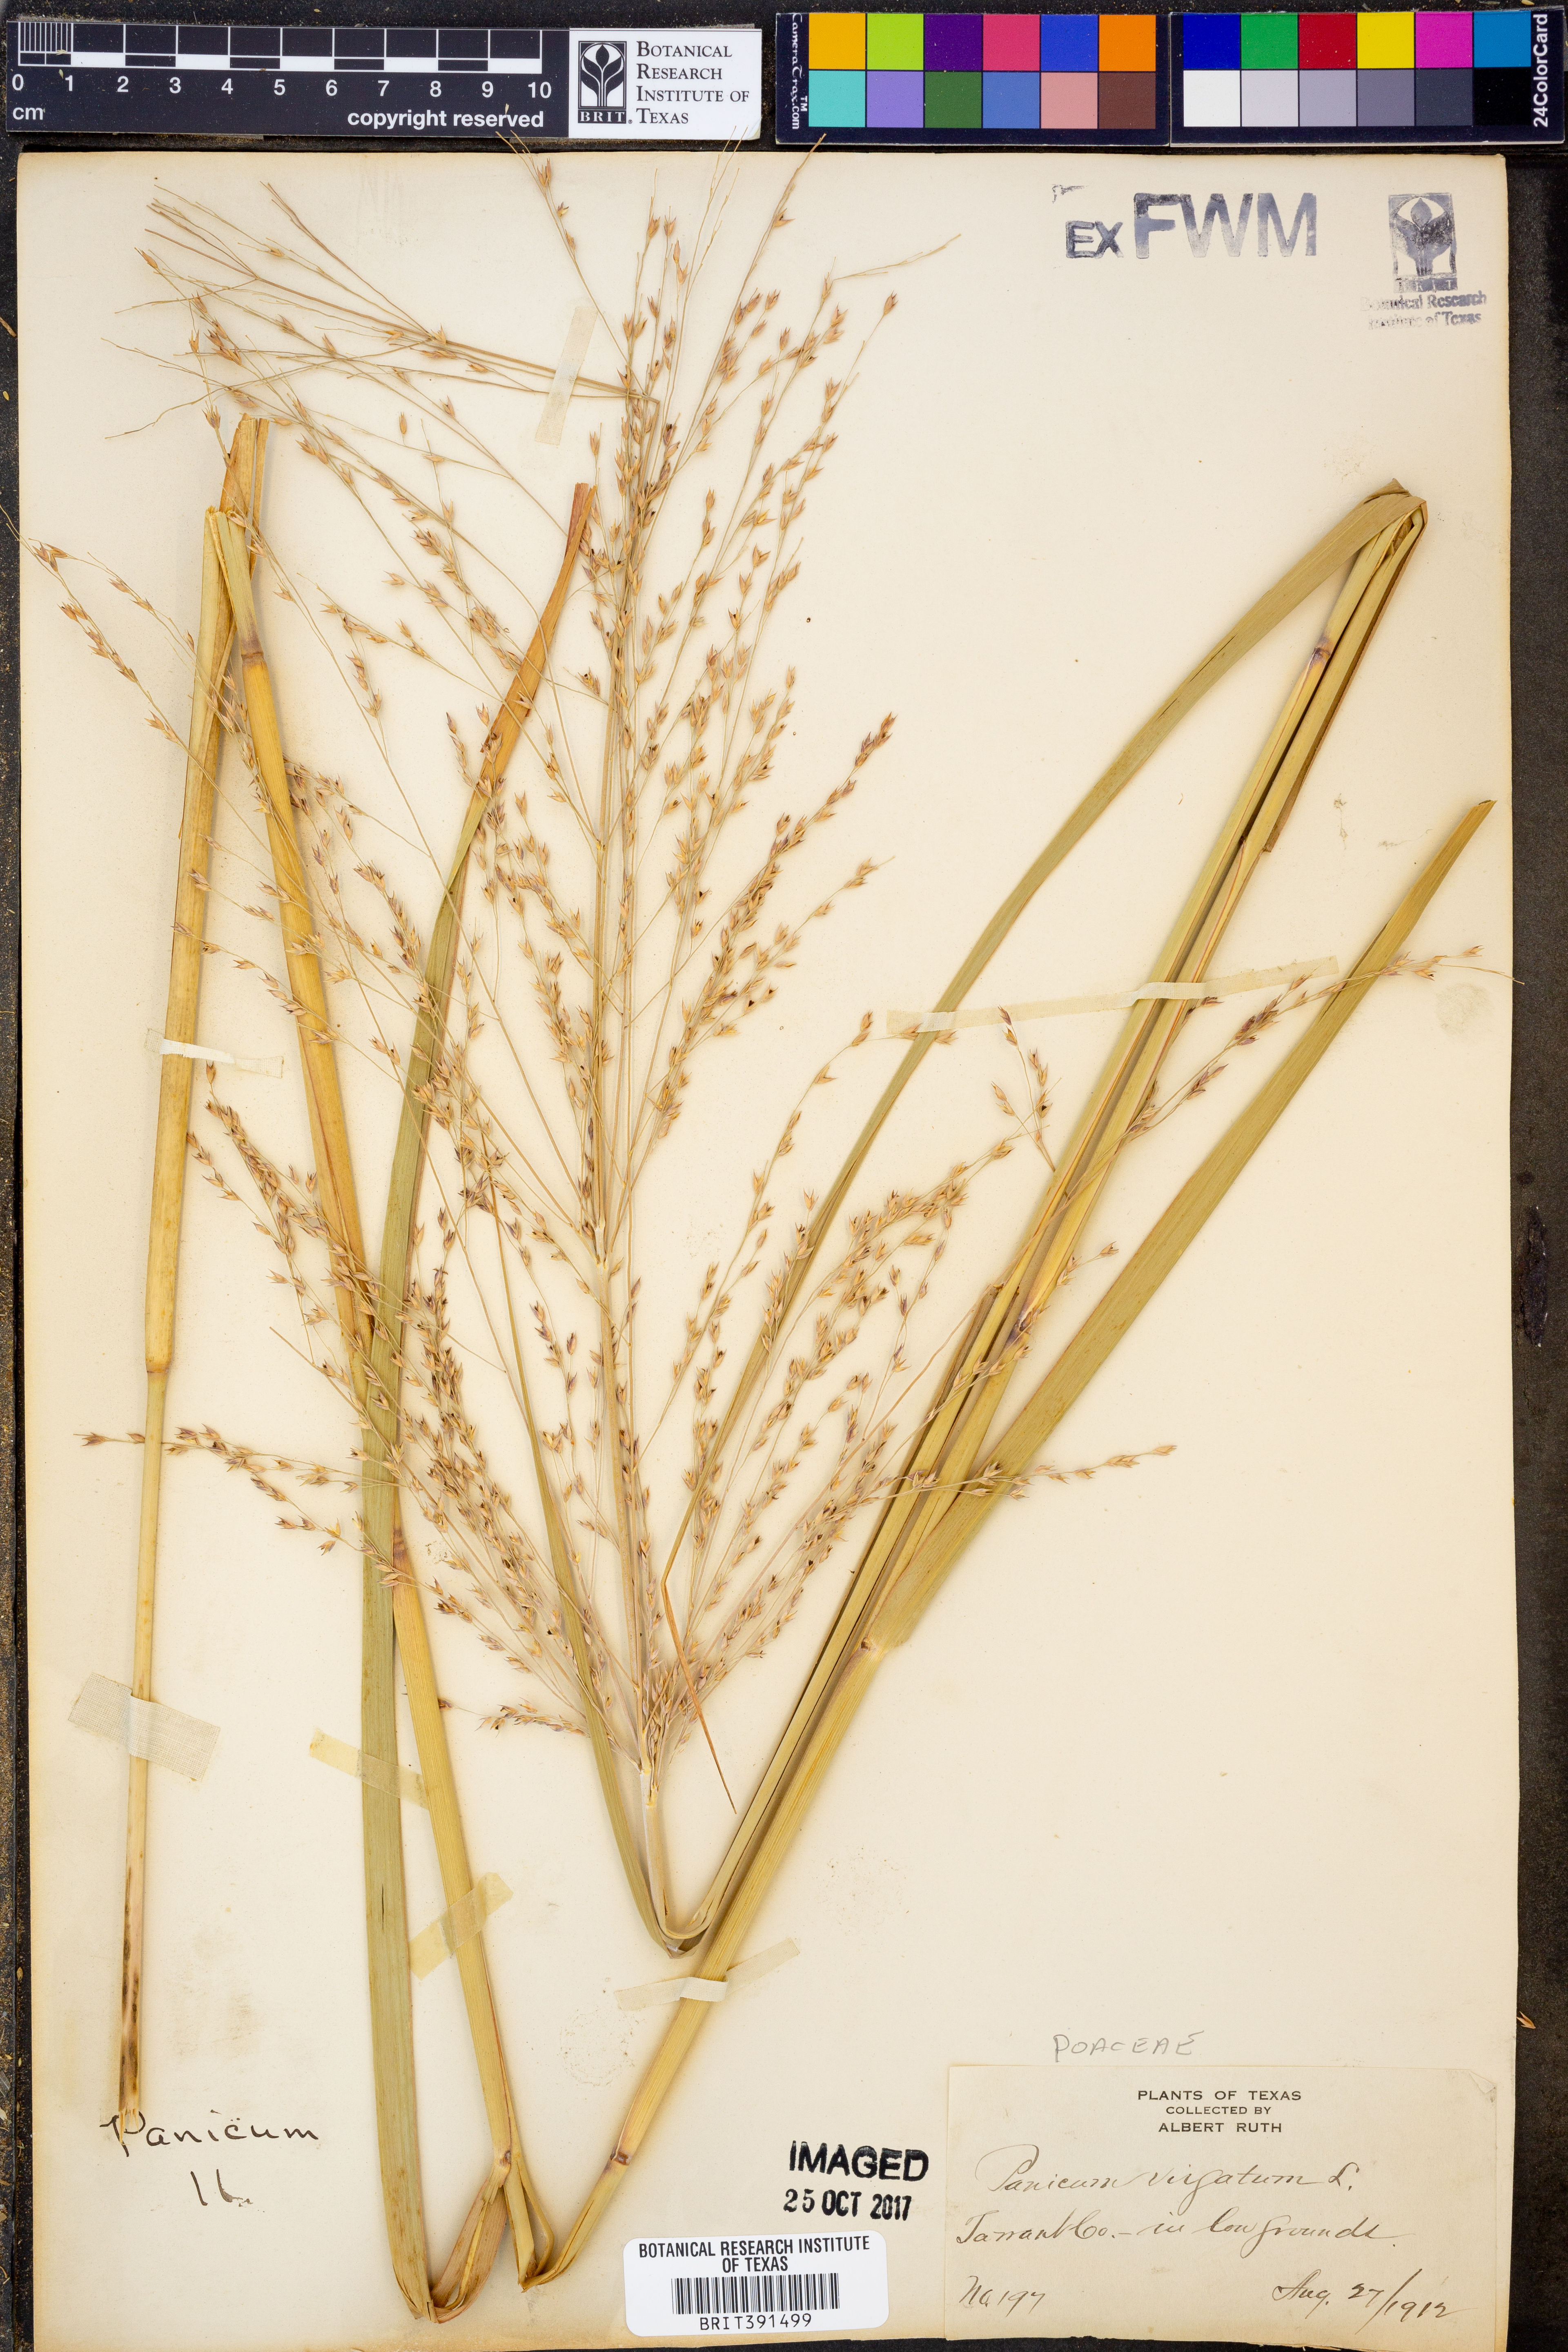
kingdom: Plantae
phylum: Tracheophyta
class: Liliopsida
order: Poales
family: Poaceae
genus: Panicum
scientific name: Panicum virgatum
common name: Switchgrass
